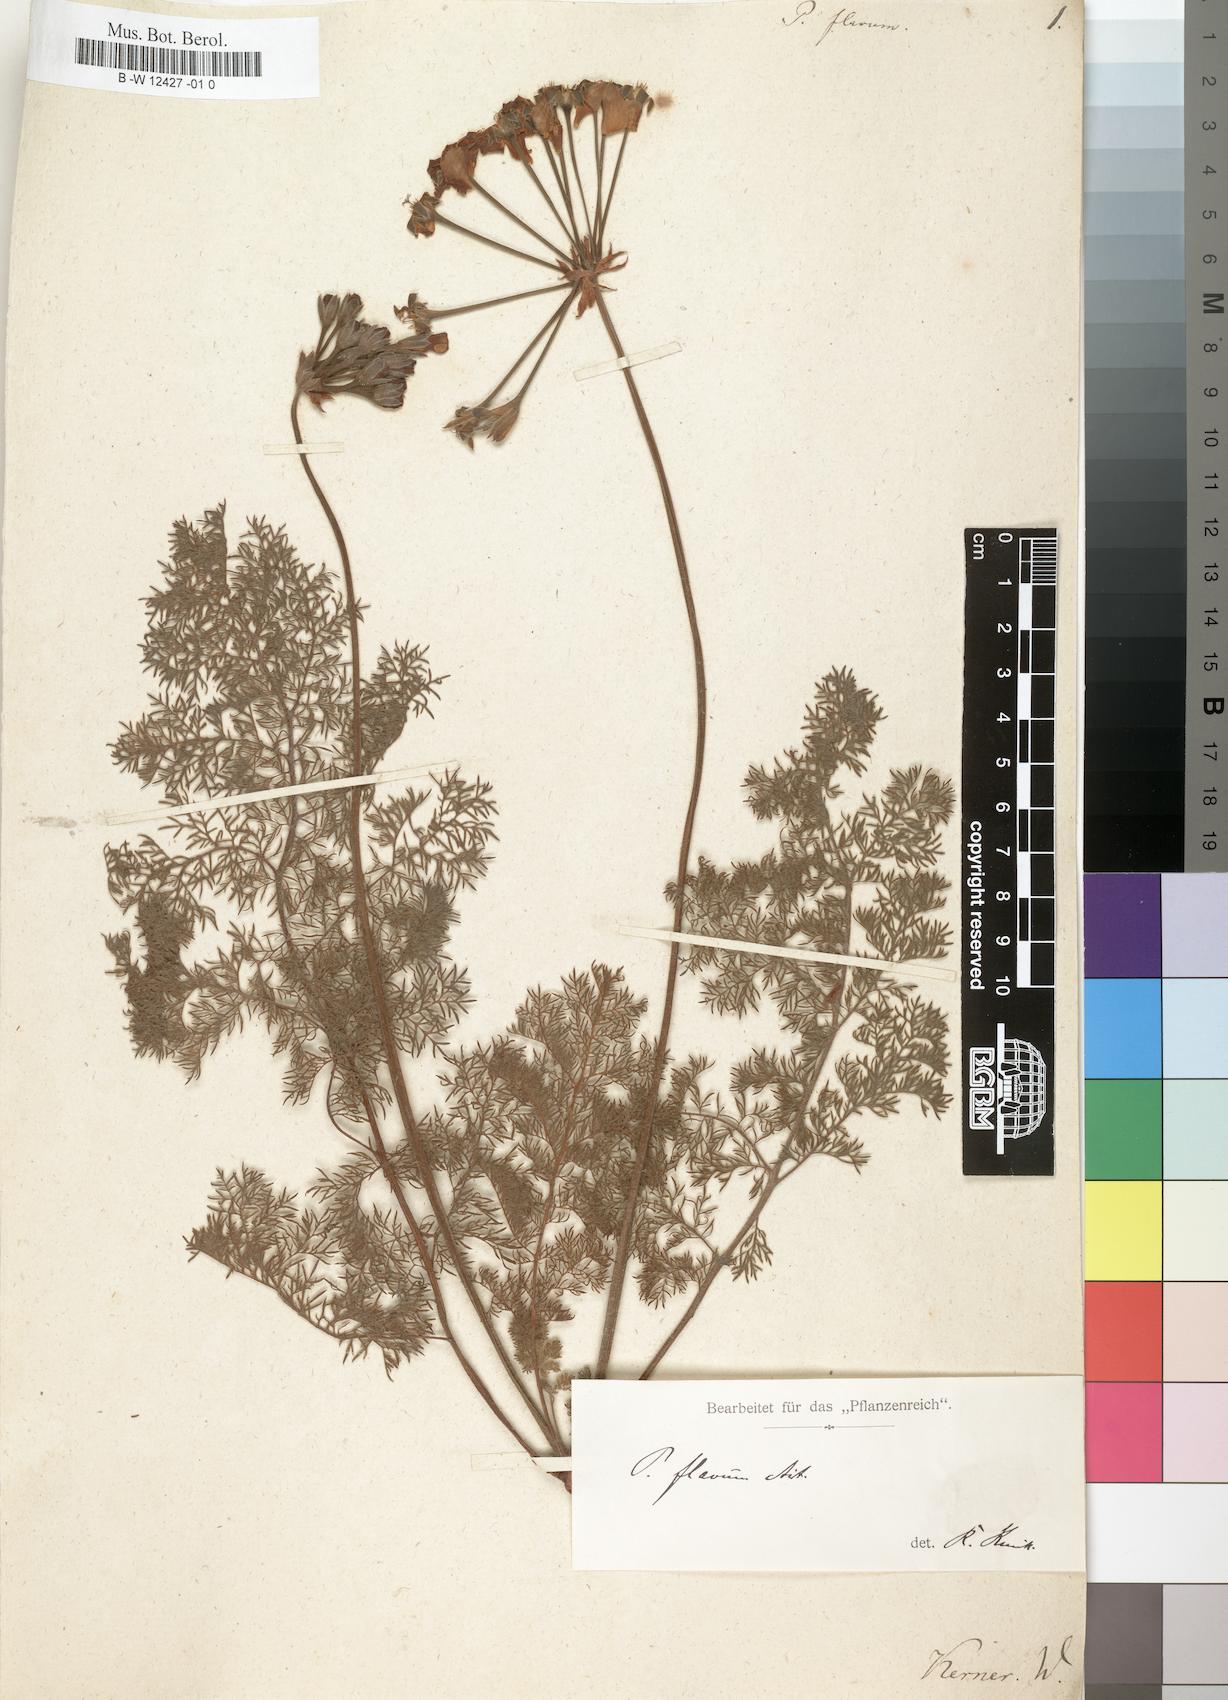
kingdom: Plantae
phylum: Tracheophyta
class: Magnoliopsida
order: Geraniales
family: Geraniaceae
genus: Pelargonium
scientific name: Pelargonium triste
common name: Night-scent pelargonium
